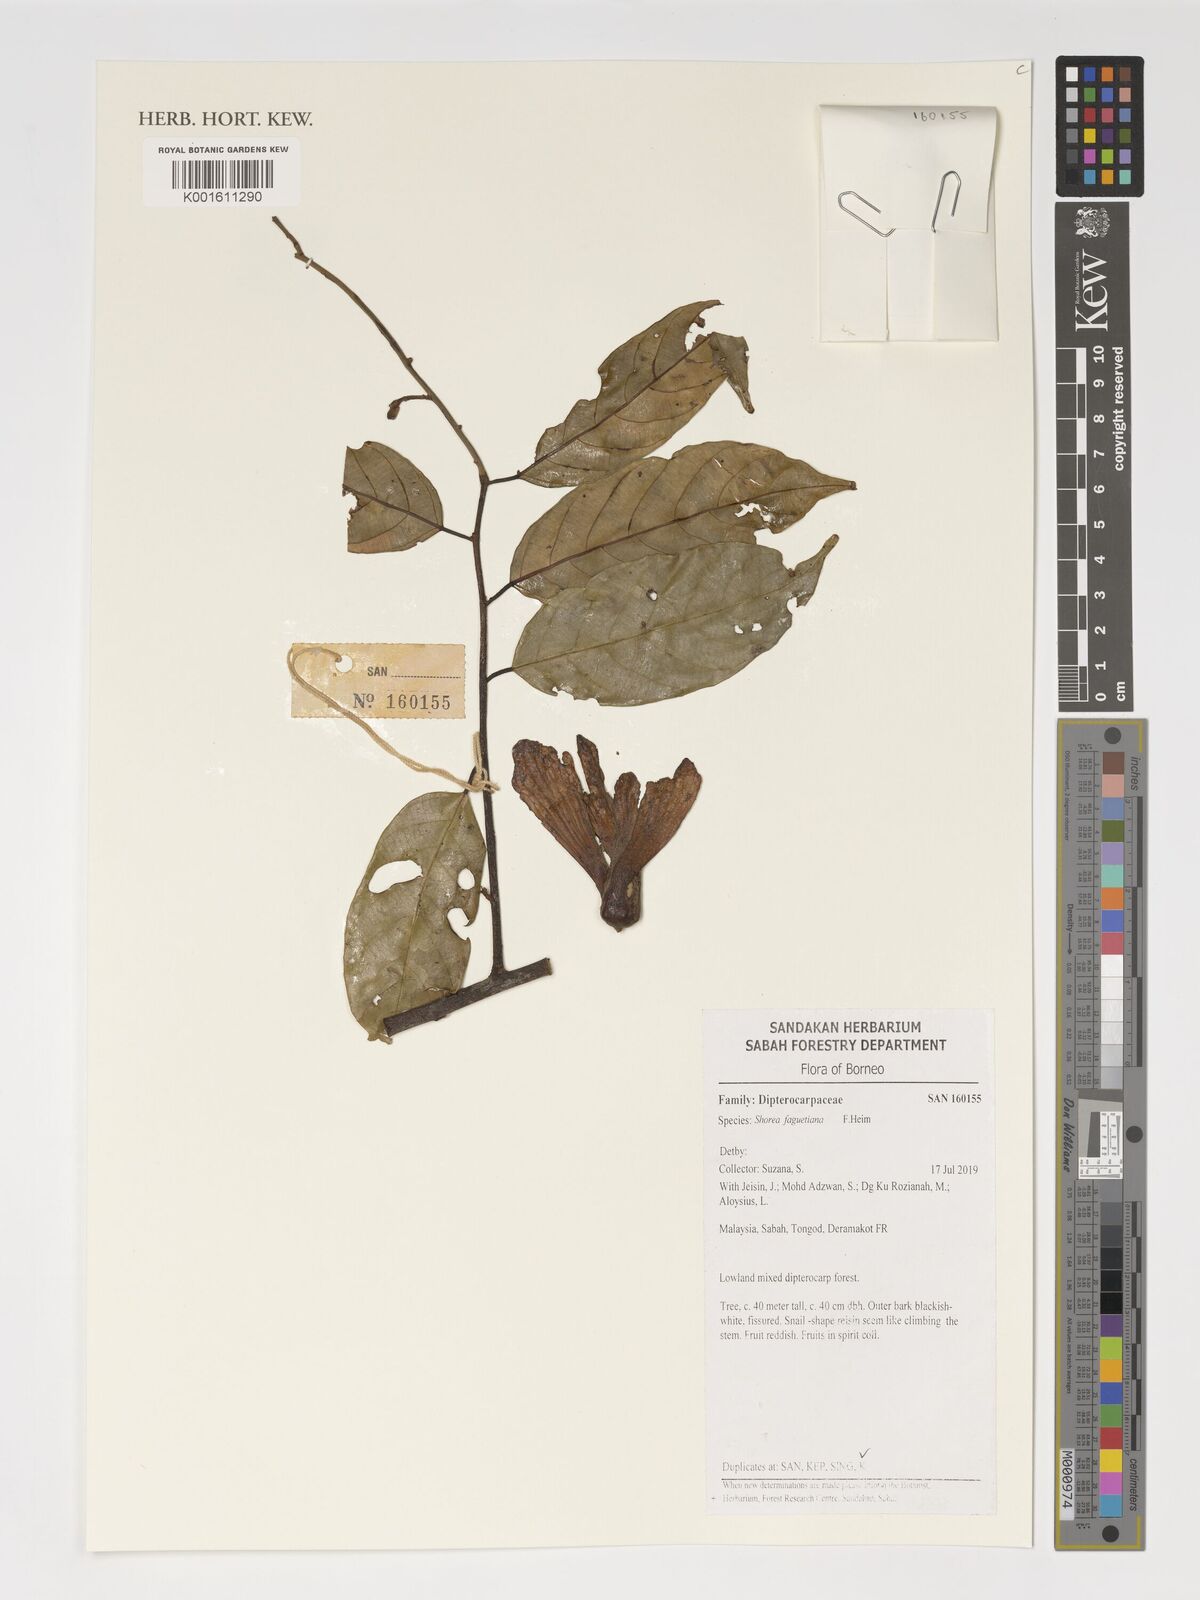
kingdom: Plantae
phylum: Tracheophyta
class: Magnoliopsida
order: Malvales
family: Dipterocarpaceae
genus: Shorea
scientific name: Shorea faguetiana
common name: Yellow meranti
